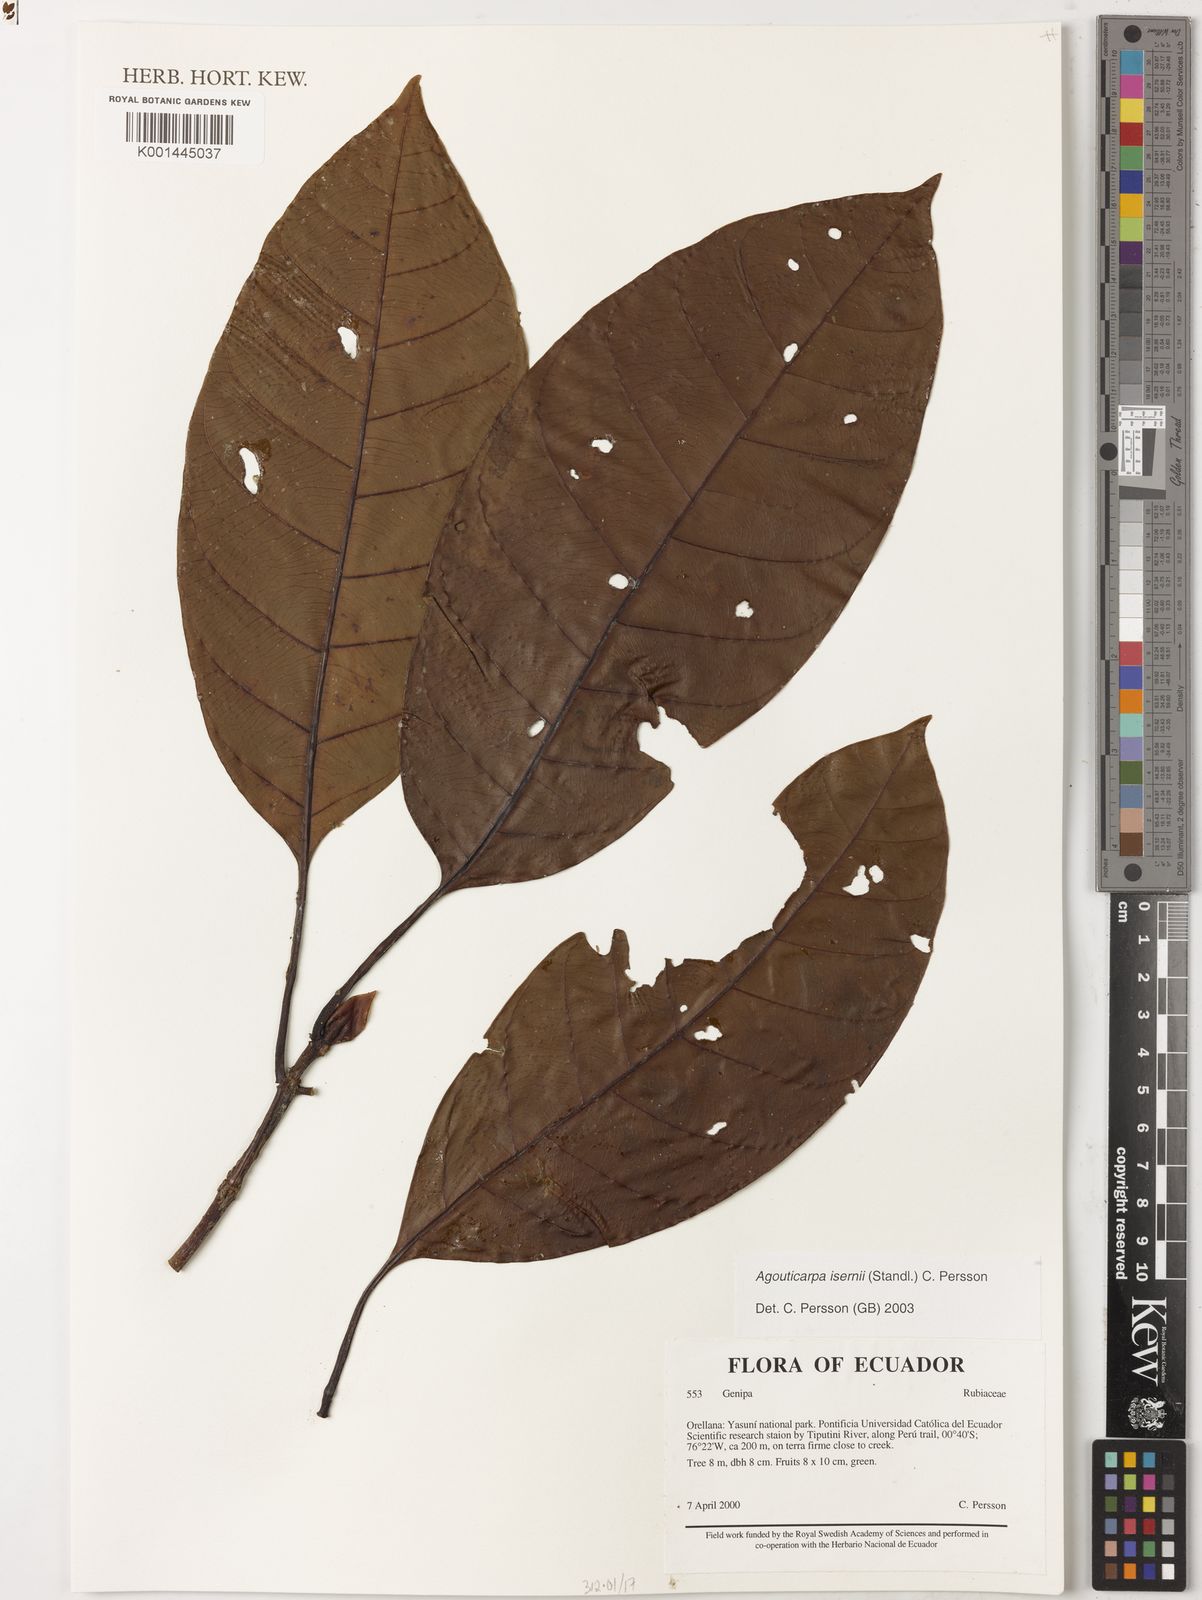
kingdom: Plantae
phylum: Tracheophyta
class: Magnoliopsida
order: Gentianales
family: Rubiaceae
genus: Agouticarpa
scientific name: Agouticarpa isernii
